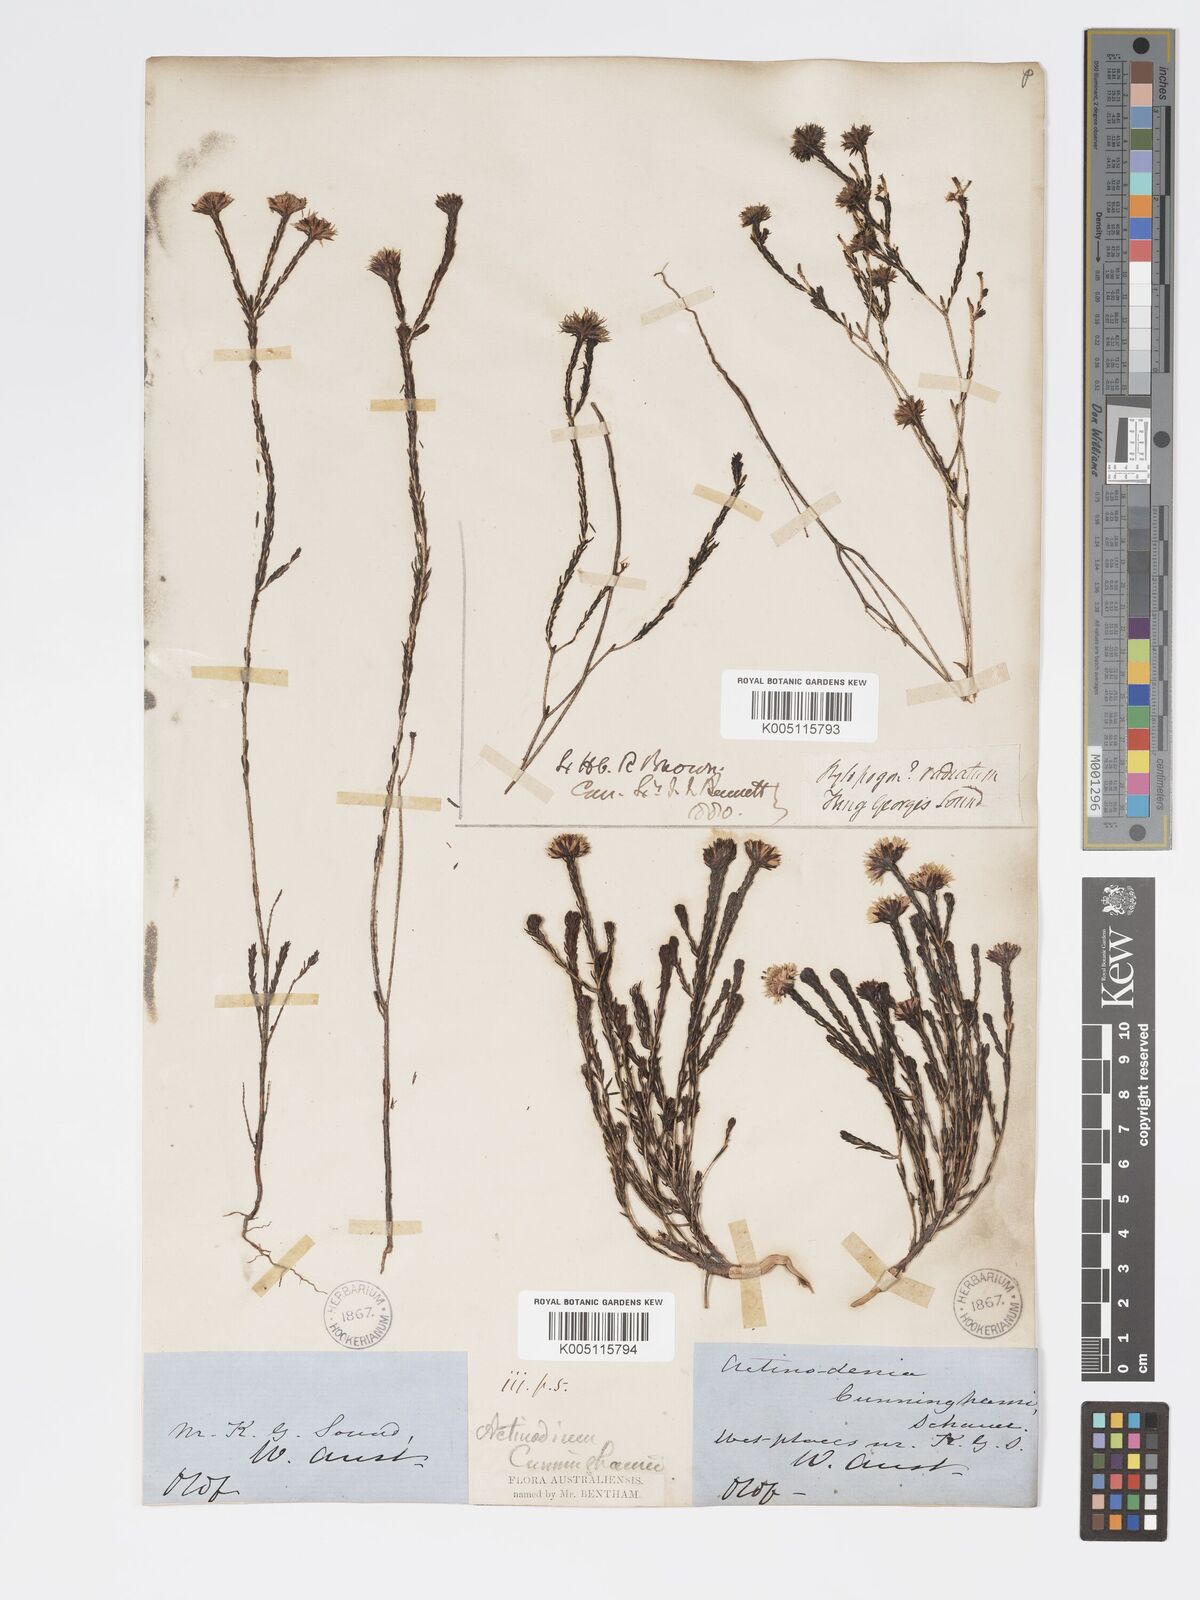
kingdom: Plantae
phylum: Tracheophyta
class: Magnoliopsida
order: Myrtales
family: Myrtaceae
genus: Actinodium
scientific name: Actinodium cunninghamii
